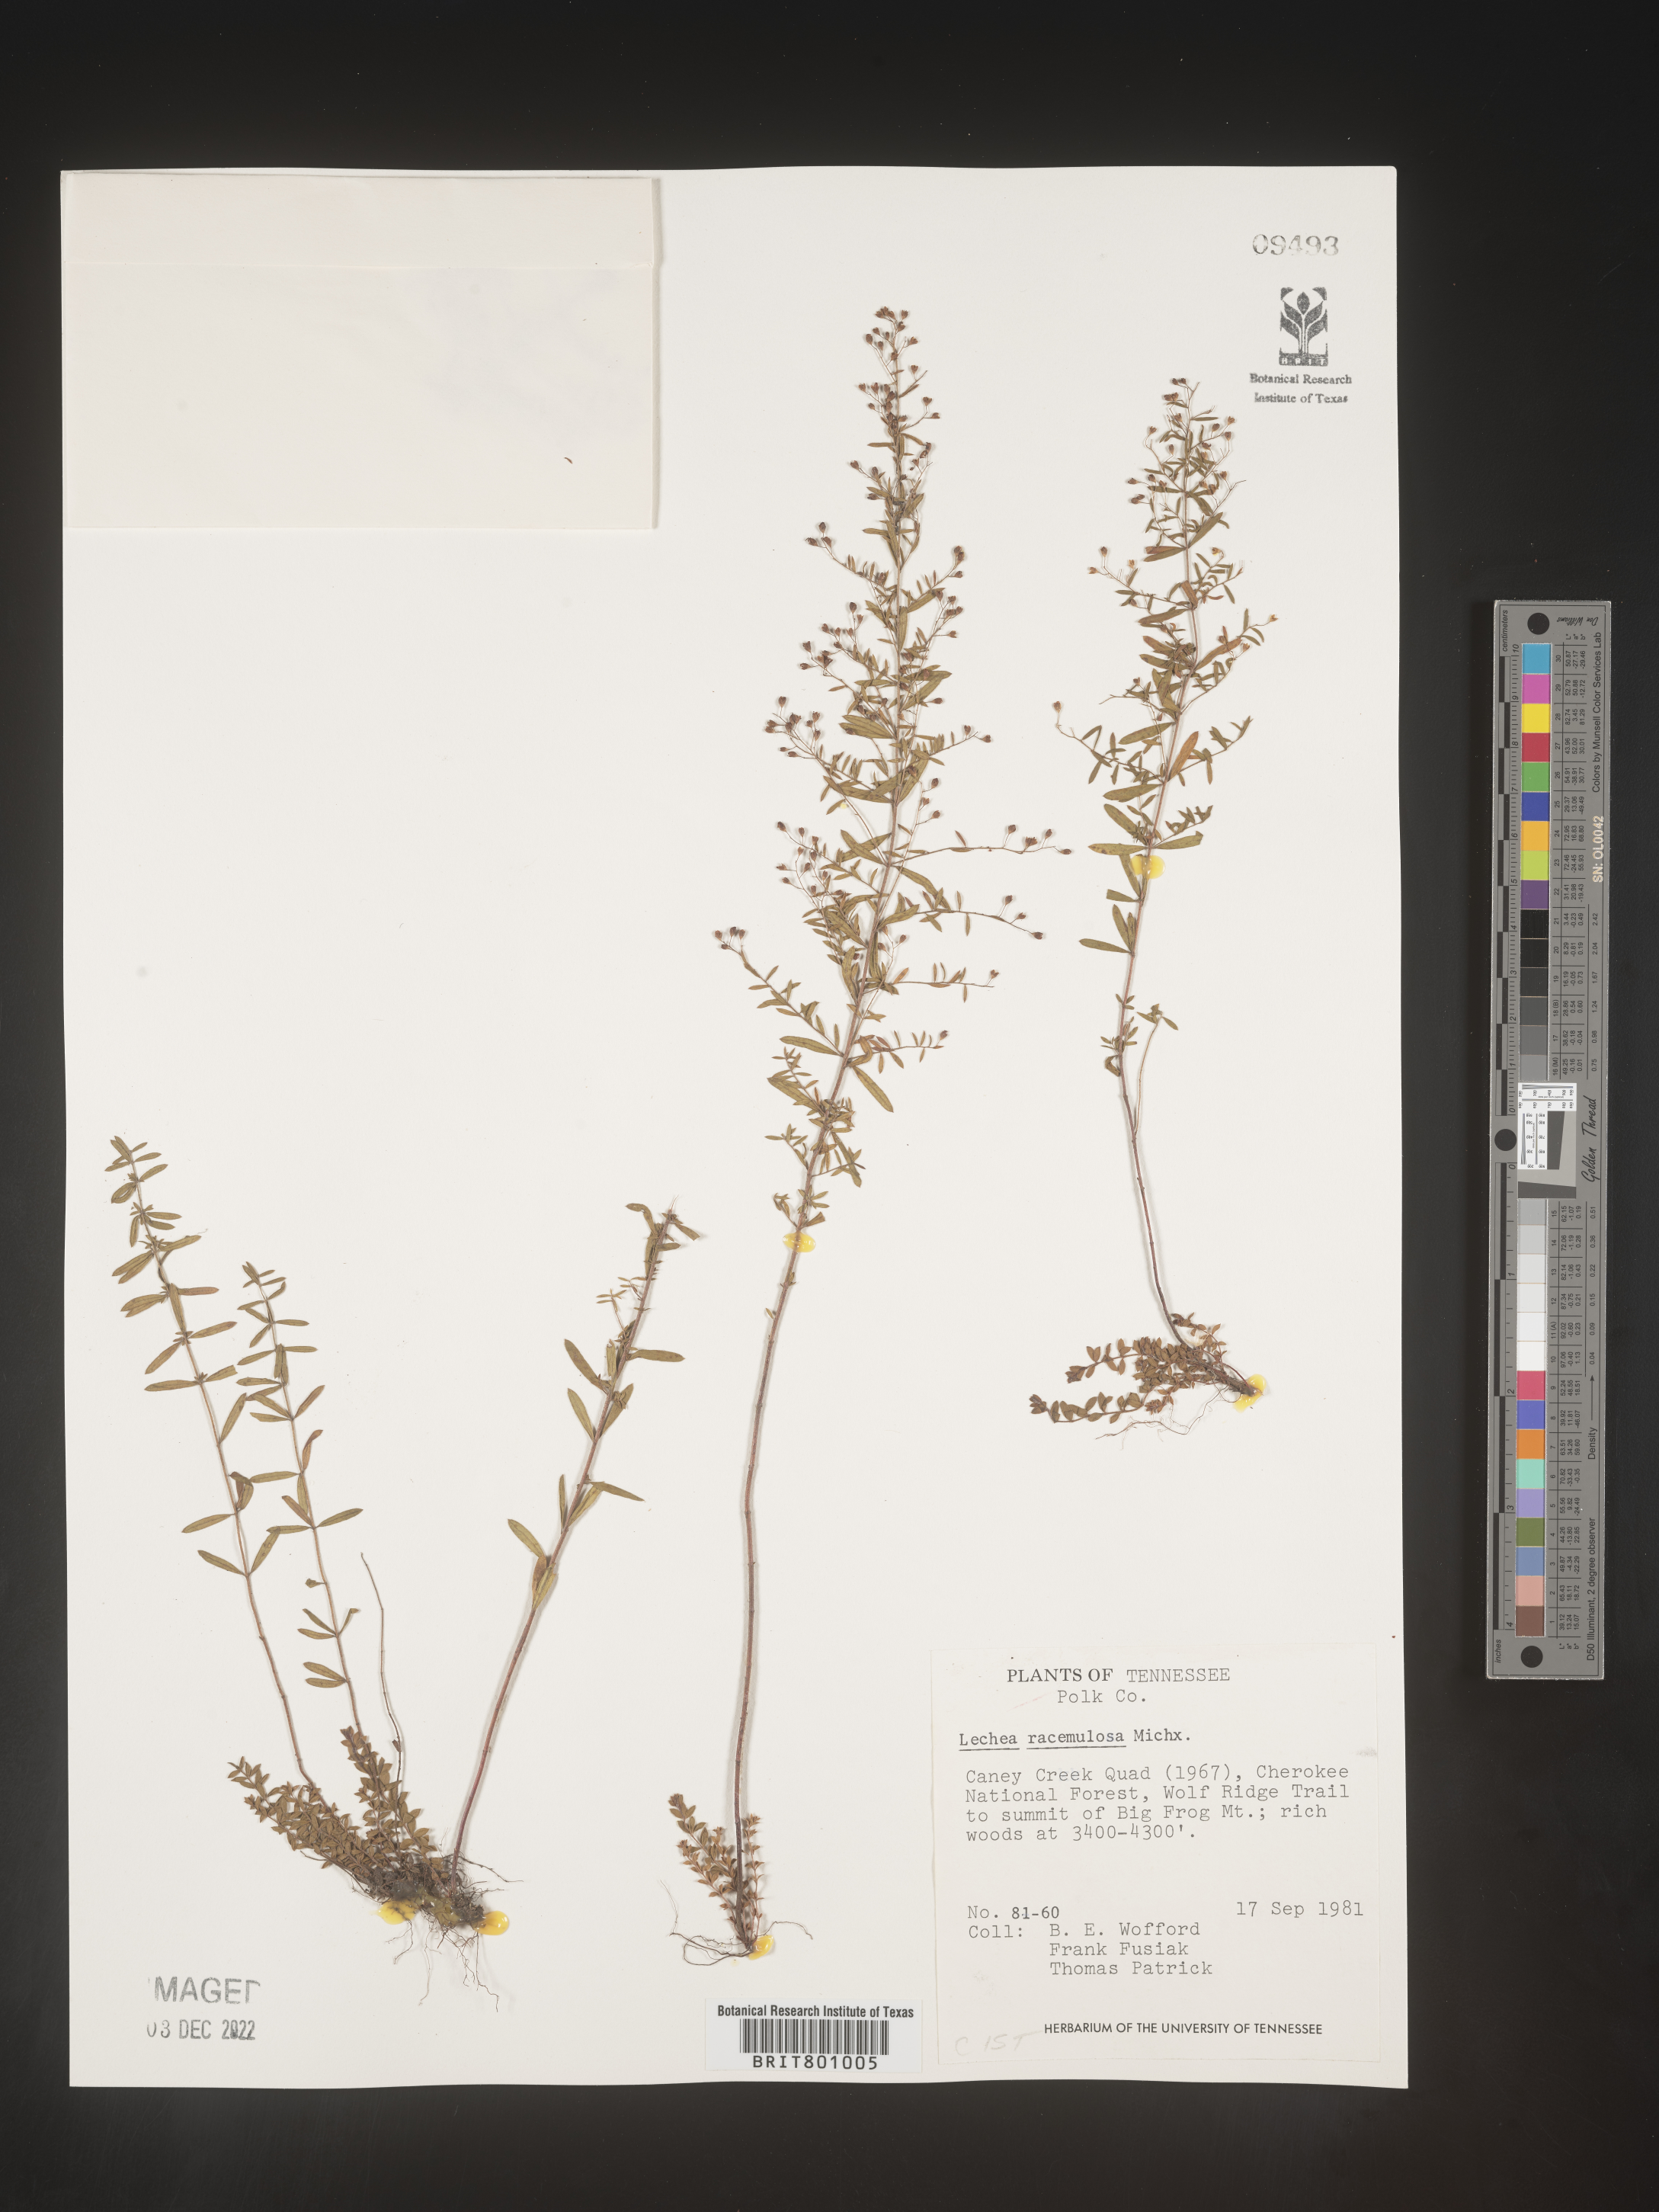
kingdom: Plantae
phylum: Tracheophyta
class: Magnoliopsida
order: Malvales
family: Cistaceae
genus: Lechea
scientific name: Lechea racemulosa
